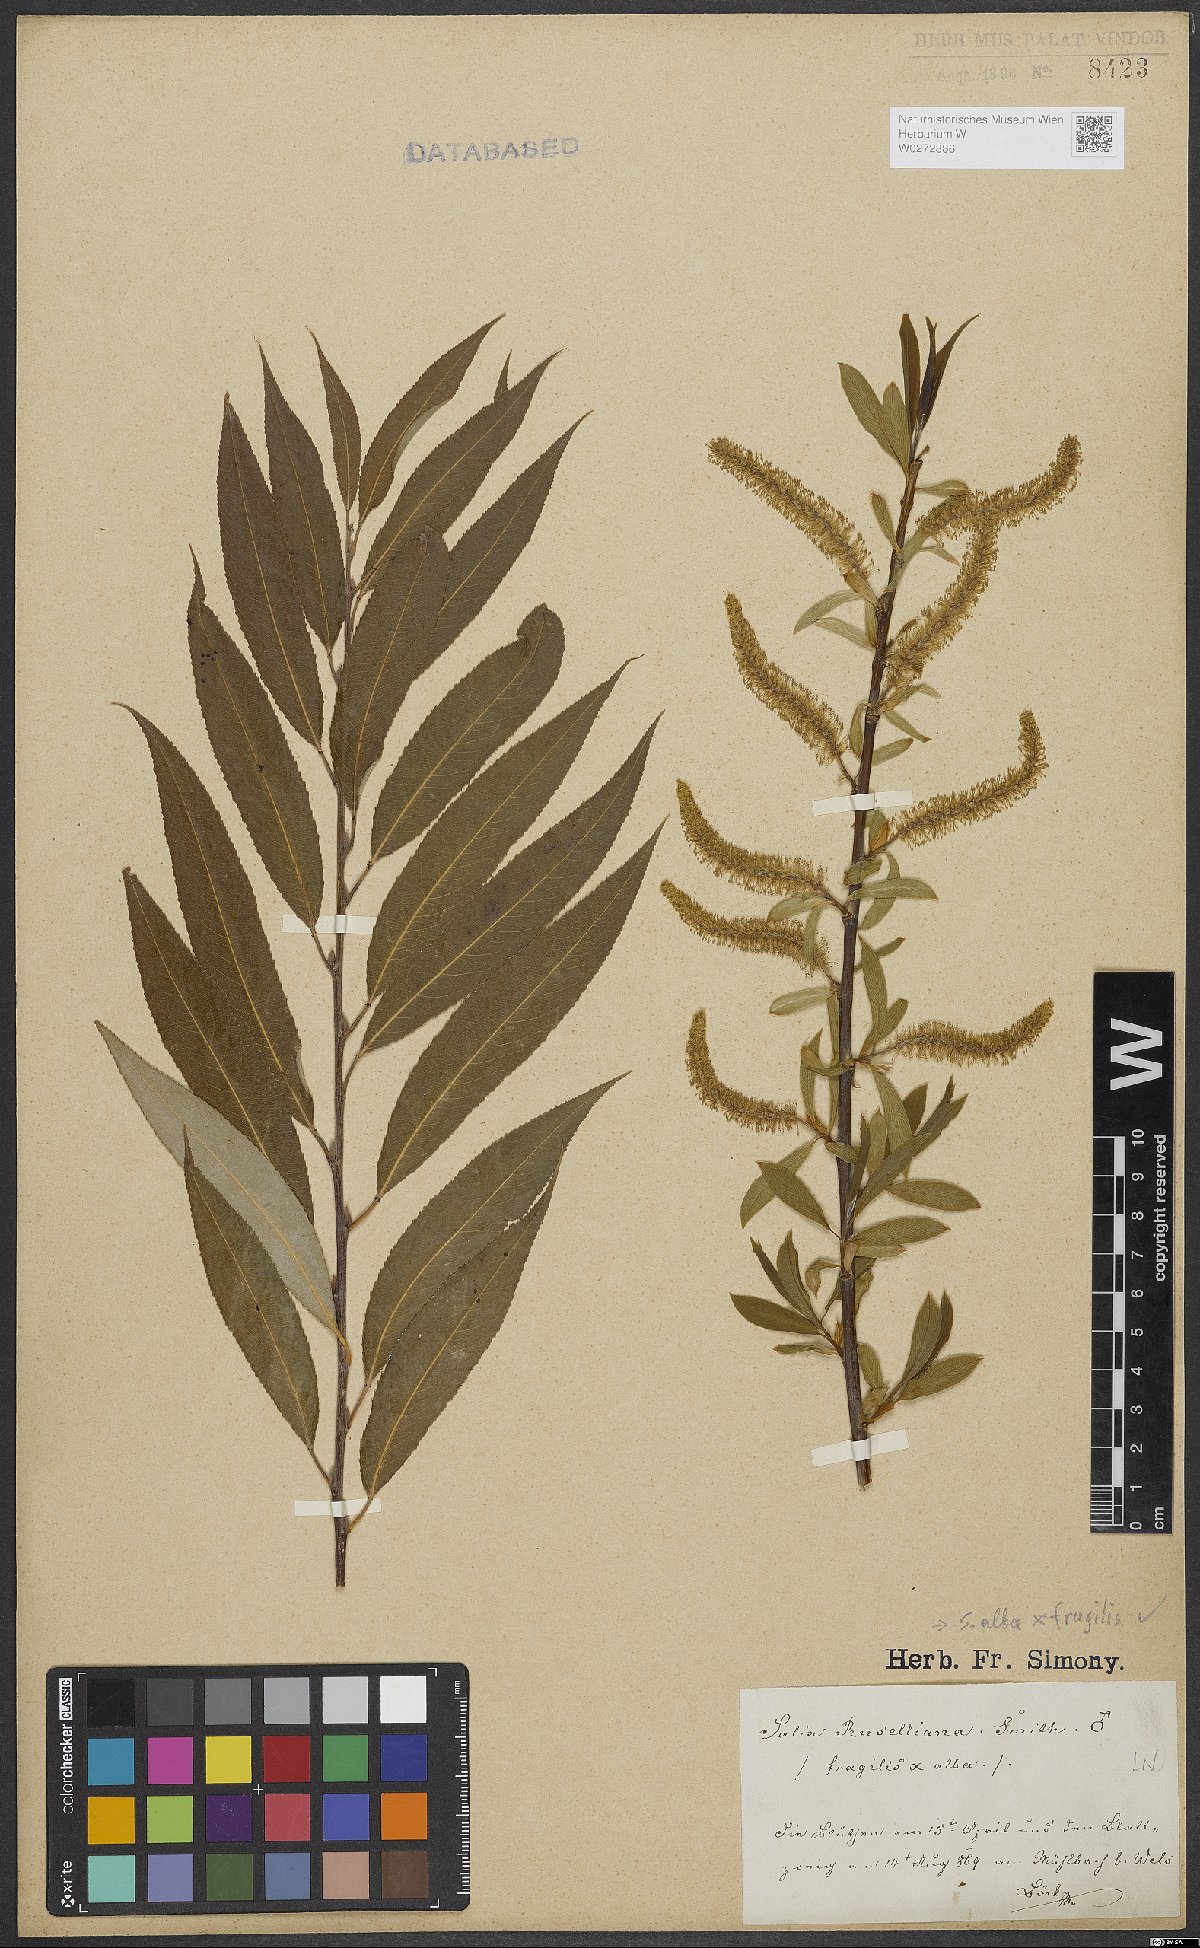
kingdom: Plantae
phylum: Tracheophyta
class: Magnoliopsida
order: Malpighiales
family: Salicaceae
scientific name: Salicaceae
